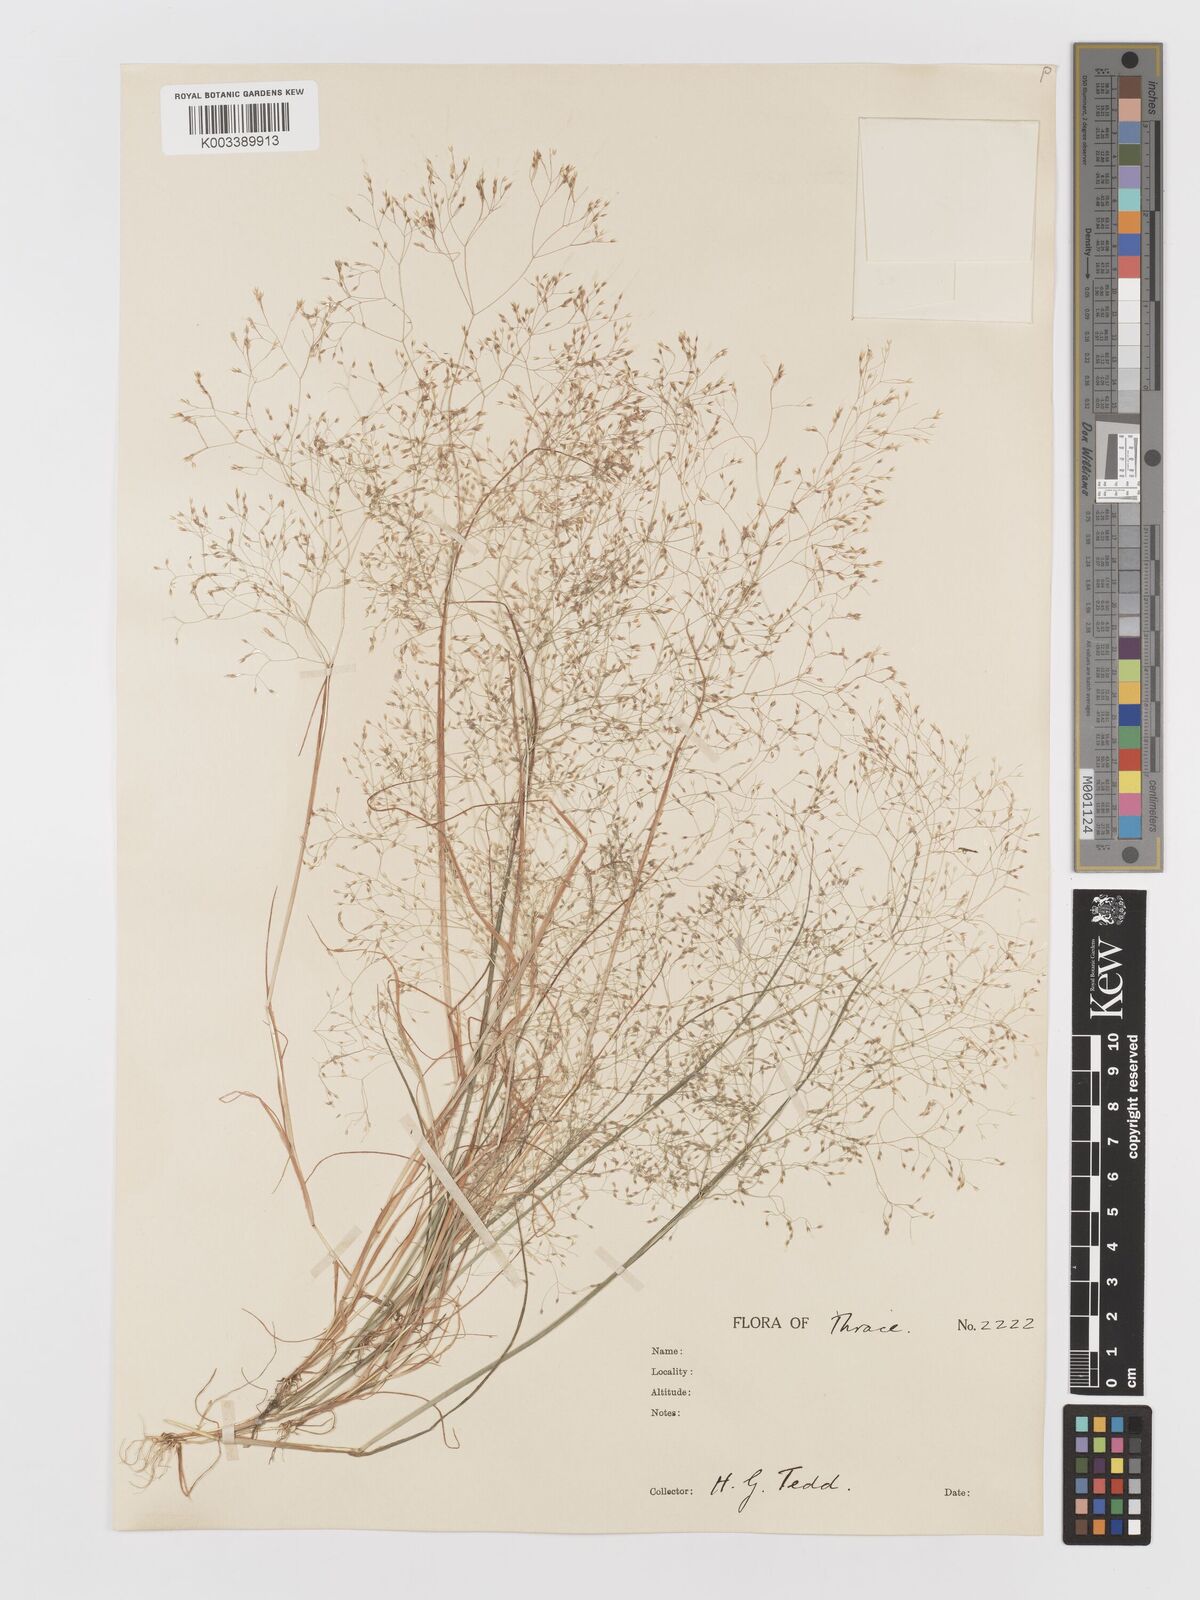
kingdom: Plantae
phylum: Tracheophyta
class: Liliopsida
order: Poales
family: Poaceae
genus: Aira
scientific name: Aira elegans
